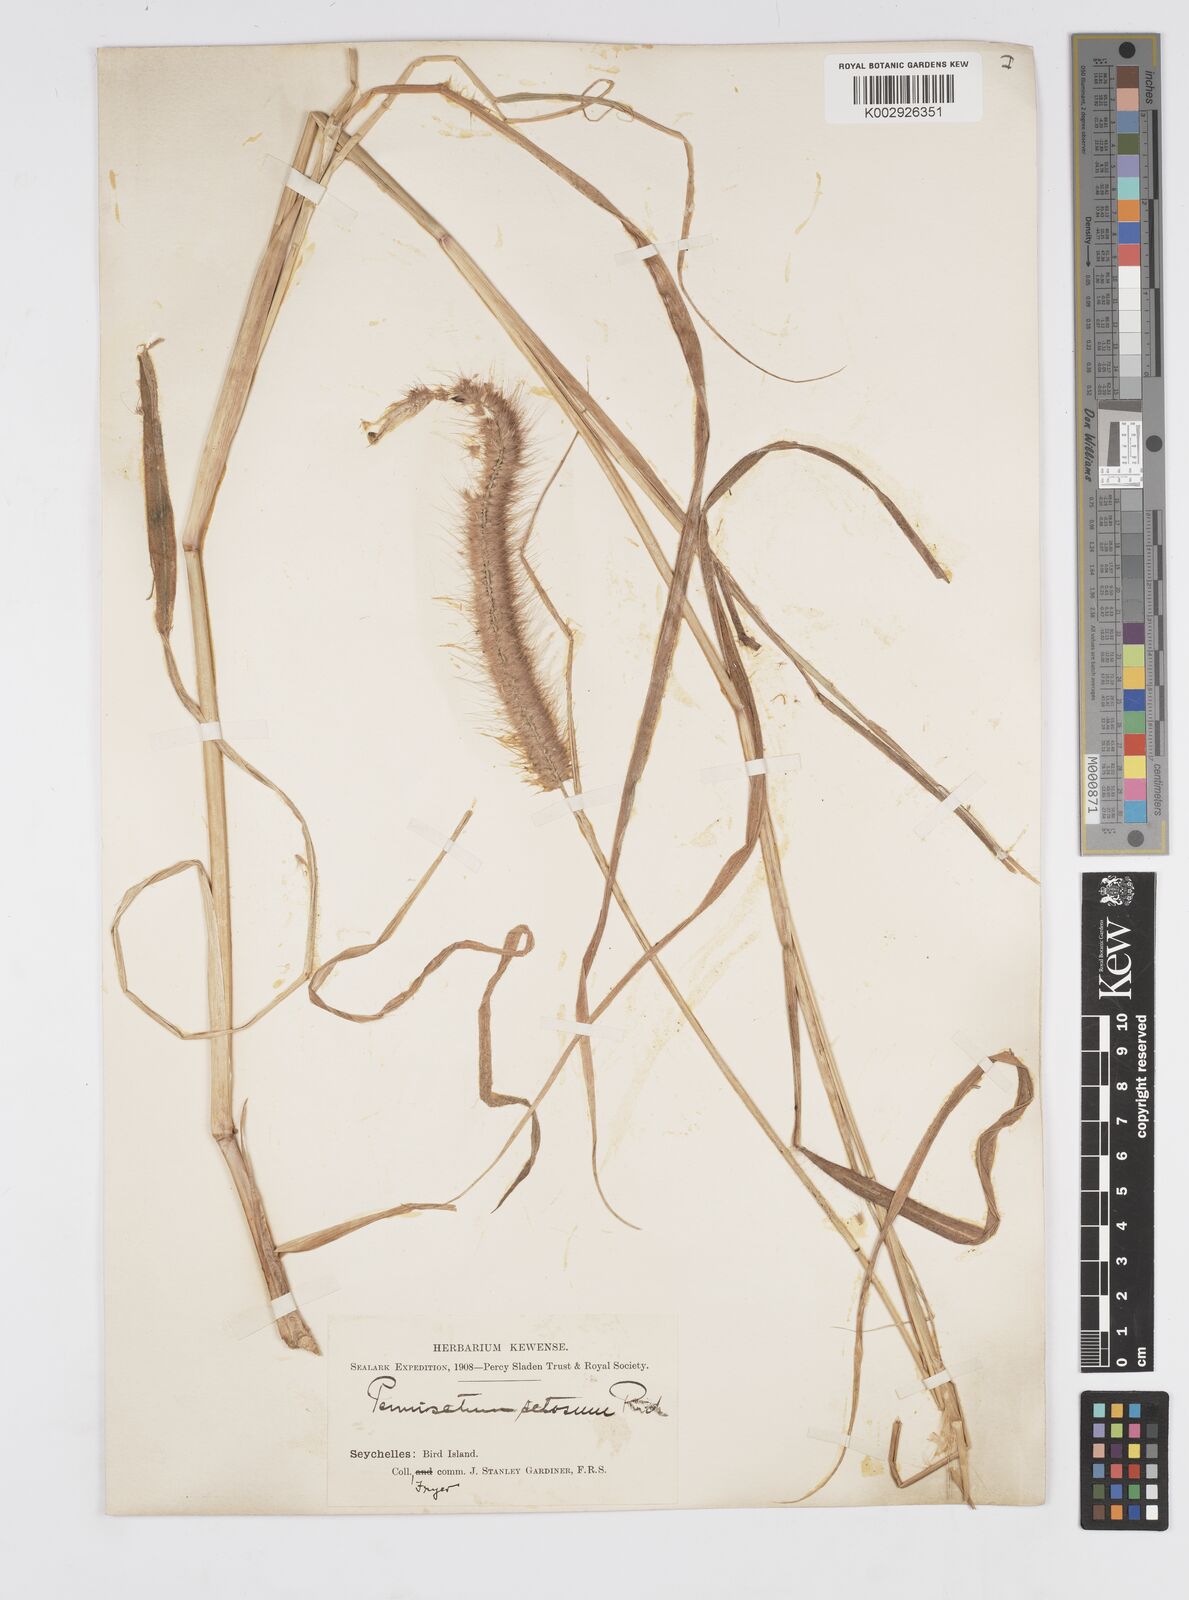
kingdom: Plantae
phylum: Tracheophyta
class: Liliopsida
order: Poales
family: Poaceae
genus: Setaria
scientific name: Setaria parviflora
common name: Knotroot bristle-grass
